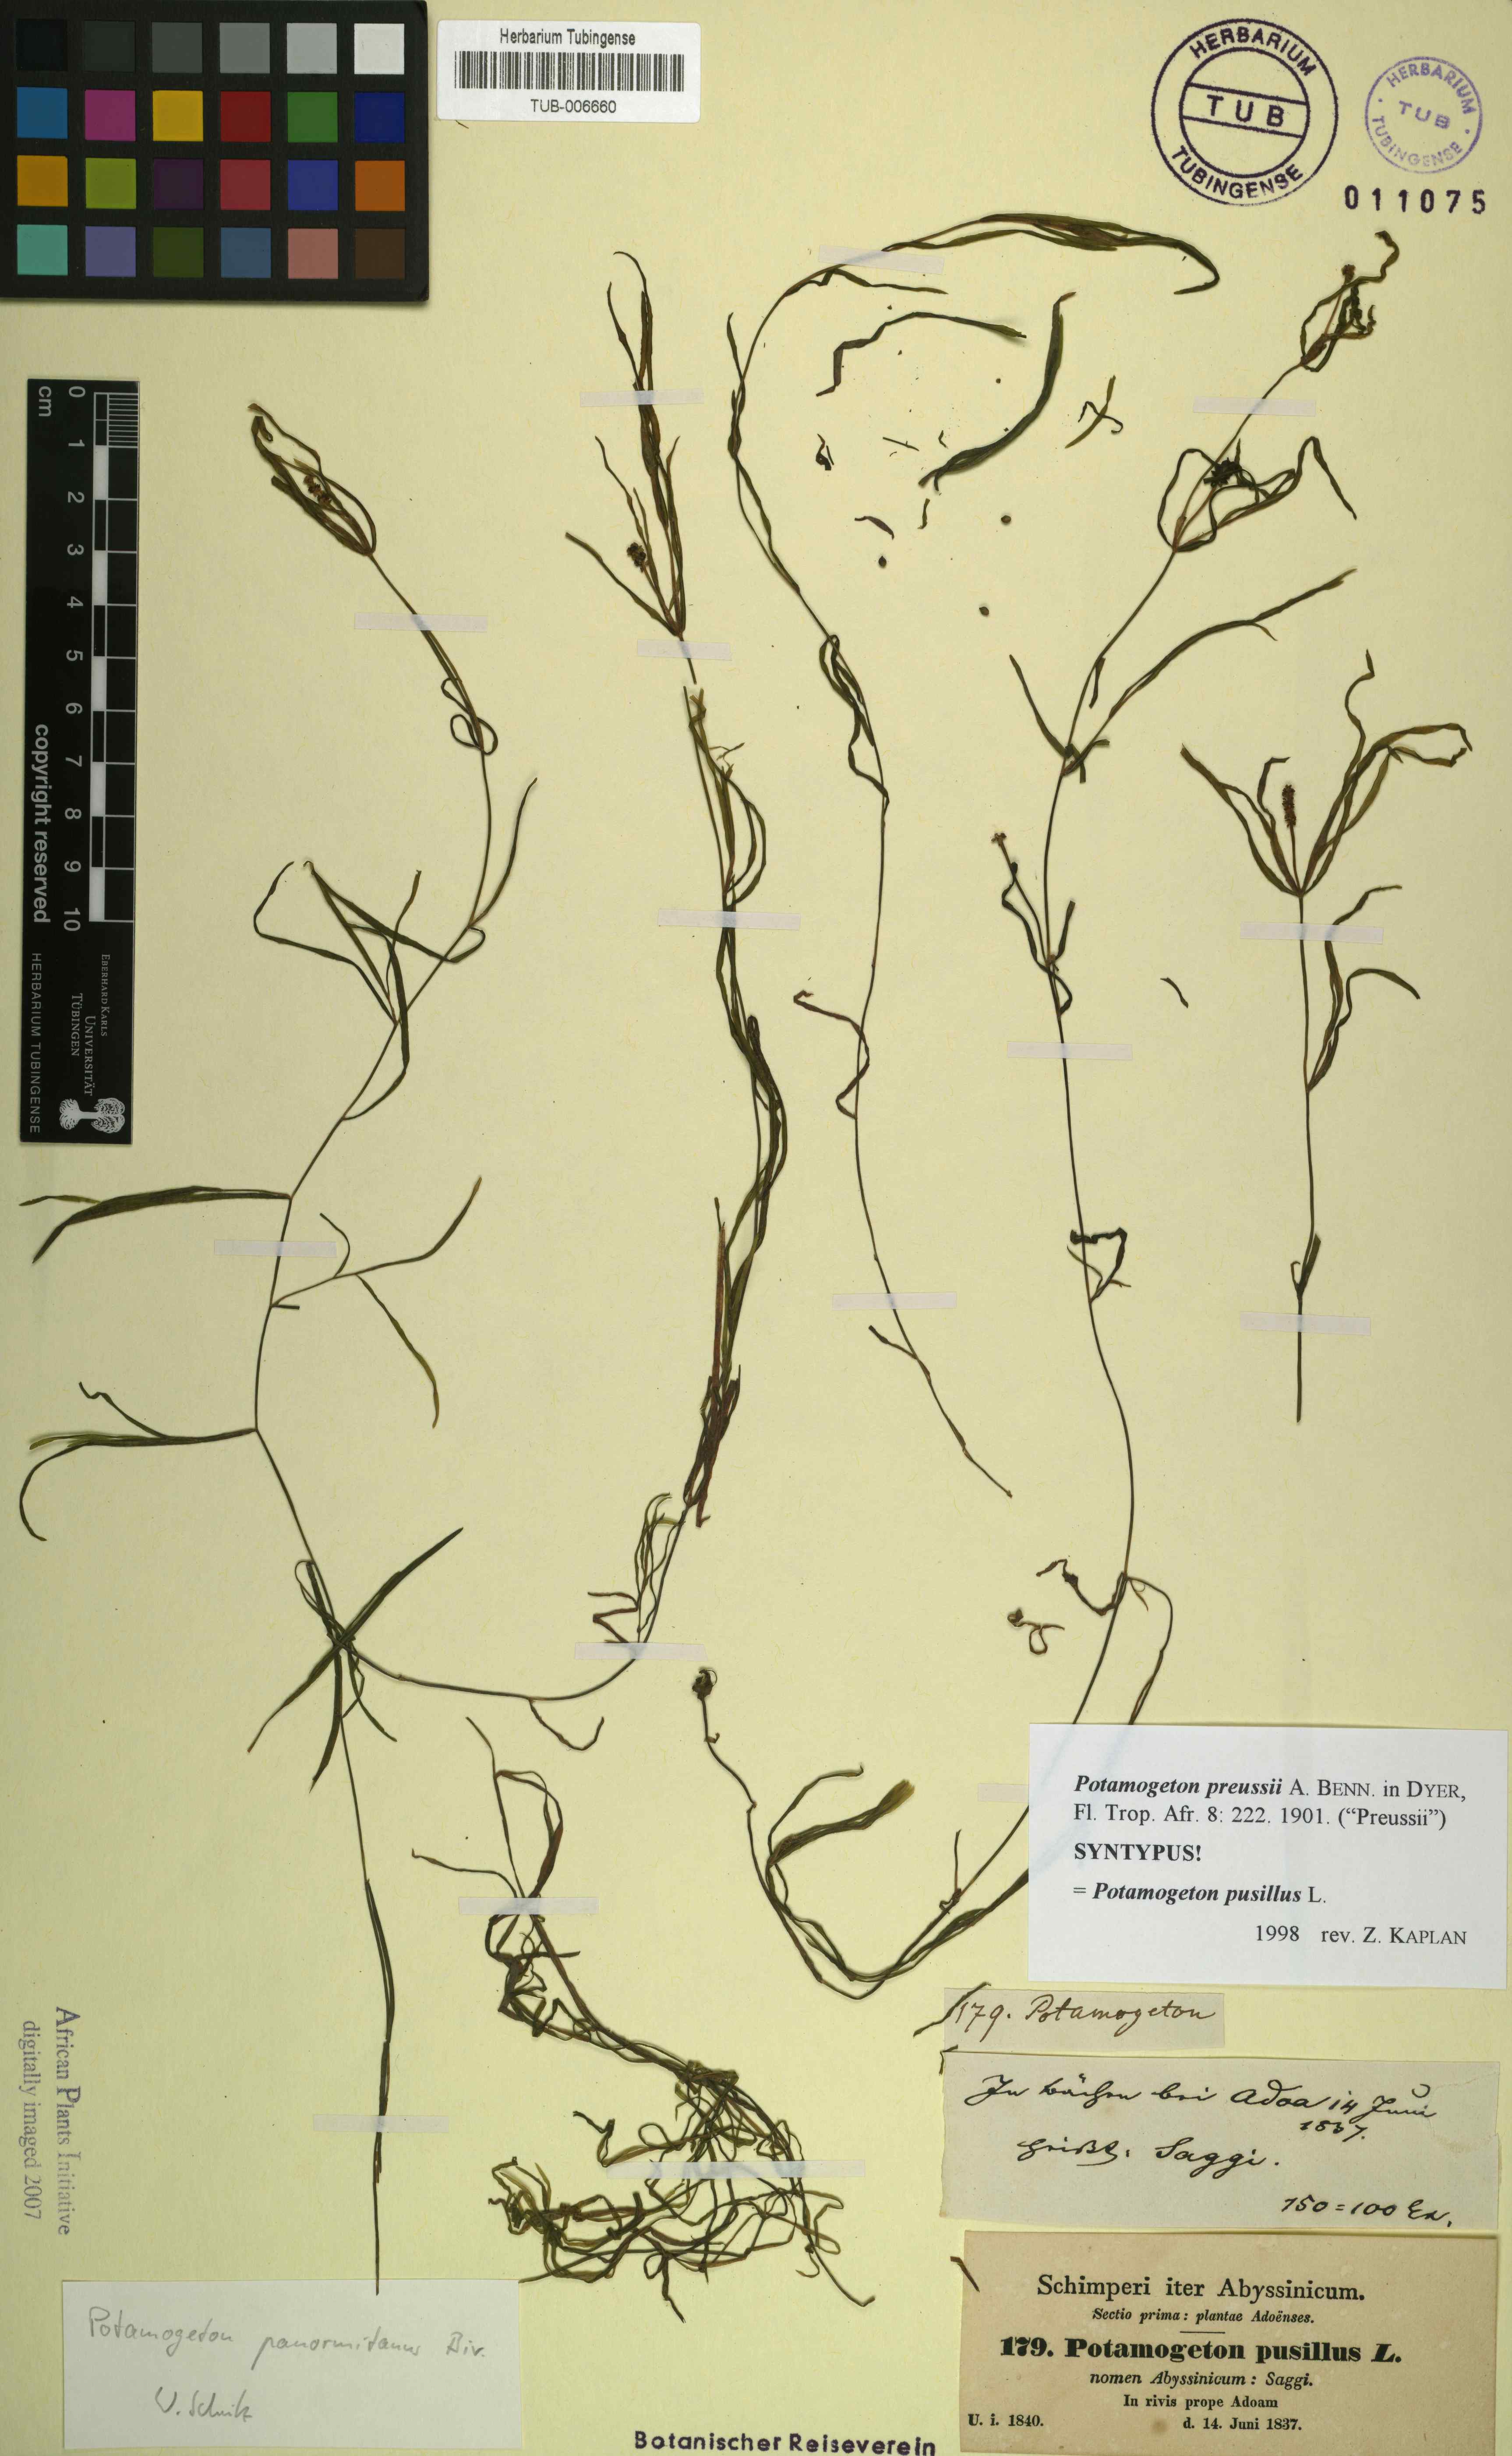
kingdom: Plantae
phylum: Tracheophyta
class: Liliopsida
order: Alismatales
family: Potamogetonaceae
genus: Potamogeton
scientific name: Potamogeton parvifolius
